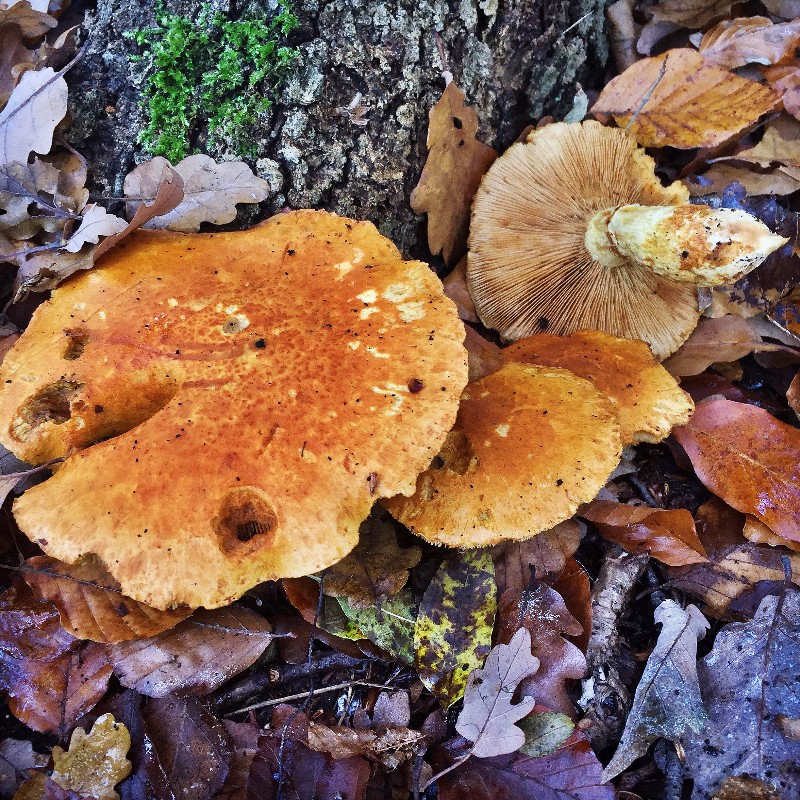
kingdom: Fungi
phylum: Basidiomycota
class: Agaricomycetes
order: Agaricales
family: Hymenogastraceae
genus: Gymnopilus
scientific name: Gymnopilus spectabilis
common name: fibret flammehat
